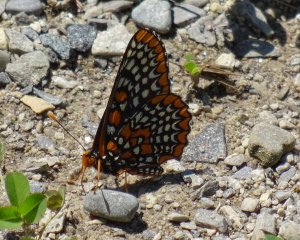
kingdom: Animalia
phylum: Arthropoda
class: Insecta
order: Lepidoptera
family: Nymphalidae
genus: Euphydryas
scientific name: Euphydryas phaeton
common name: Baltimore Checkerspot
